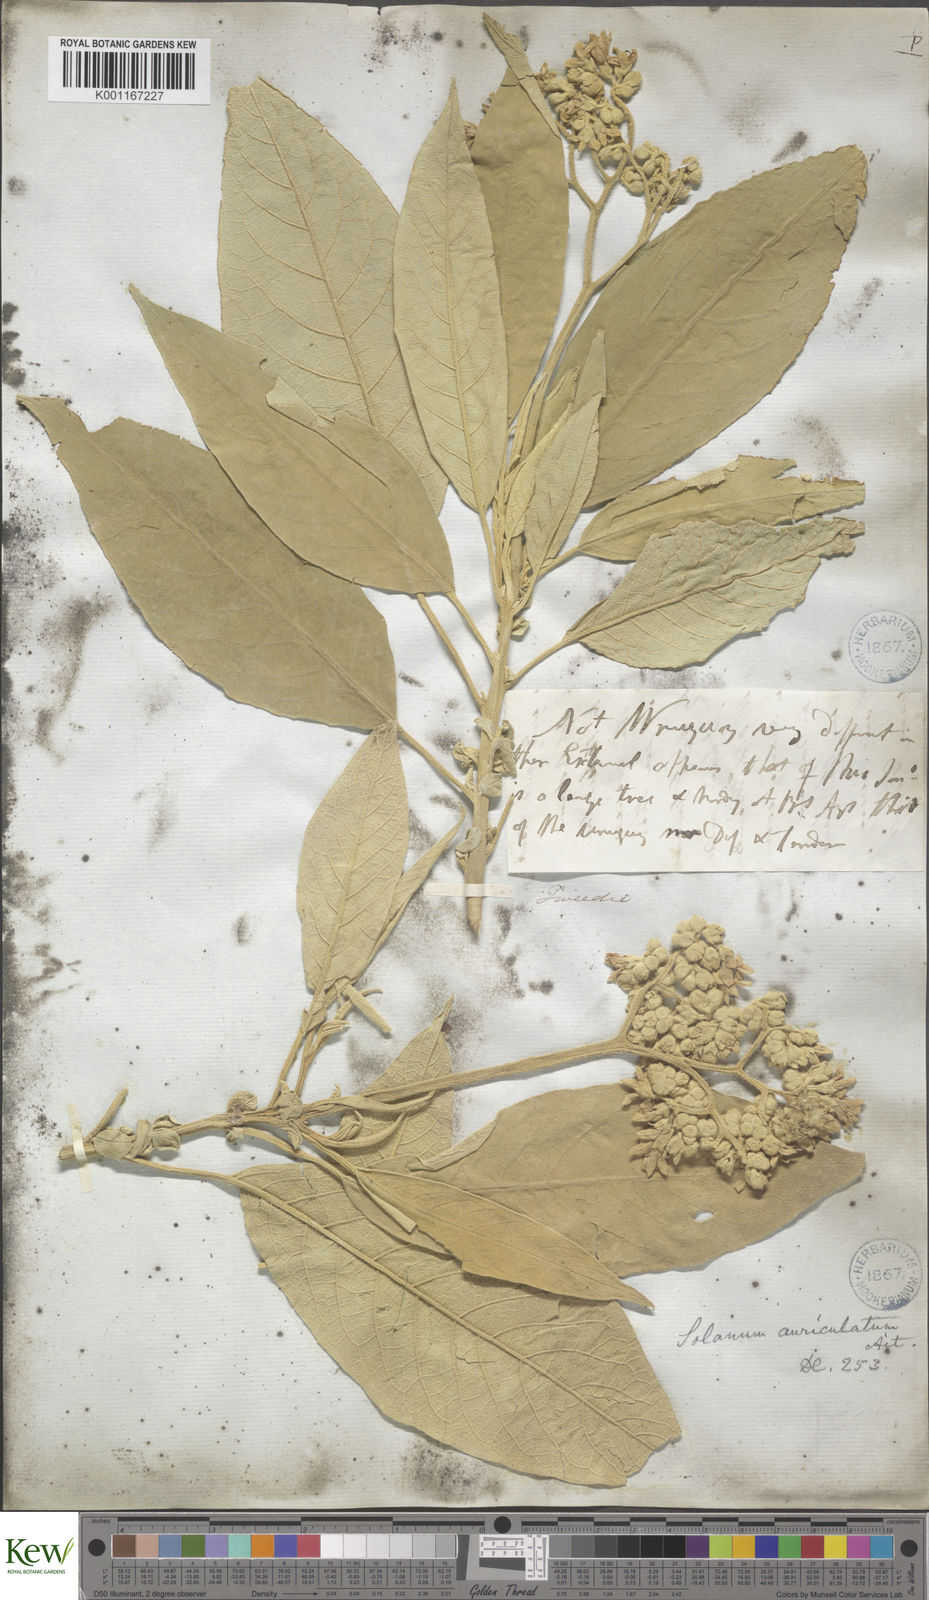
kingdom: Plantae
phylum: Tracheophyta
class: Magnoliopsida
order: Solanales
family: Solanaceae
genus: Solanum
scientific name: Solanum mauritianum
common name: Earleaf nightshade
